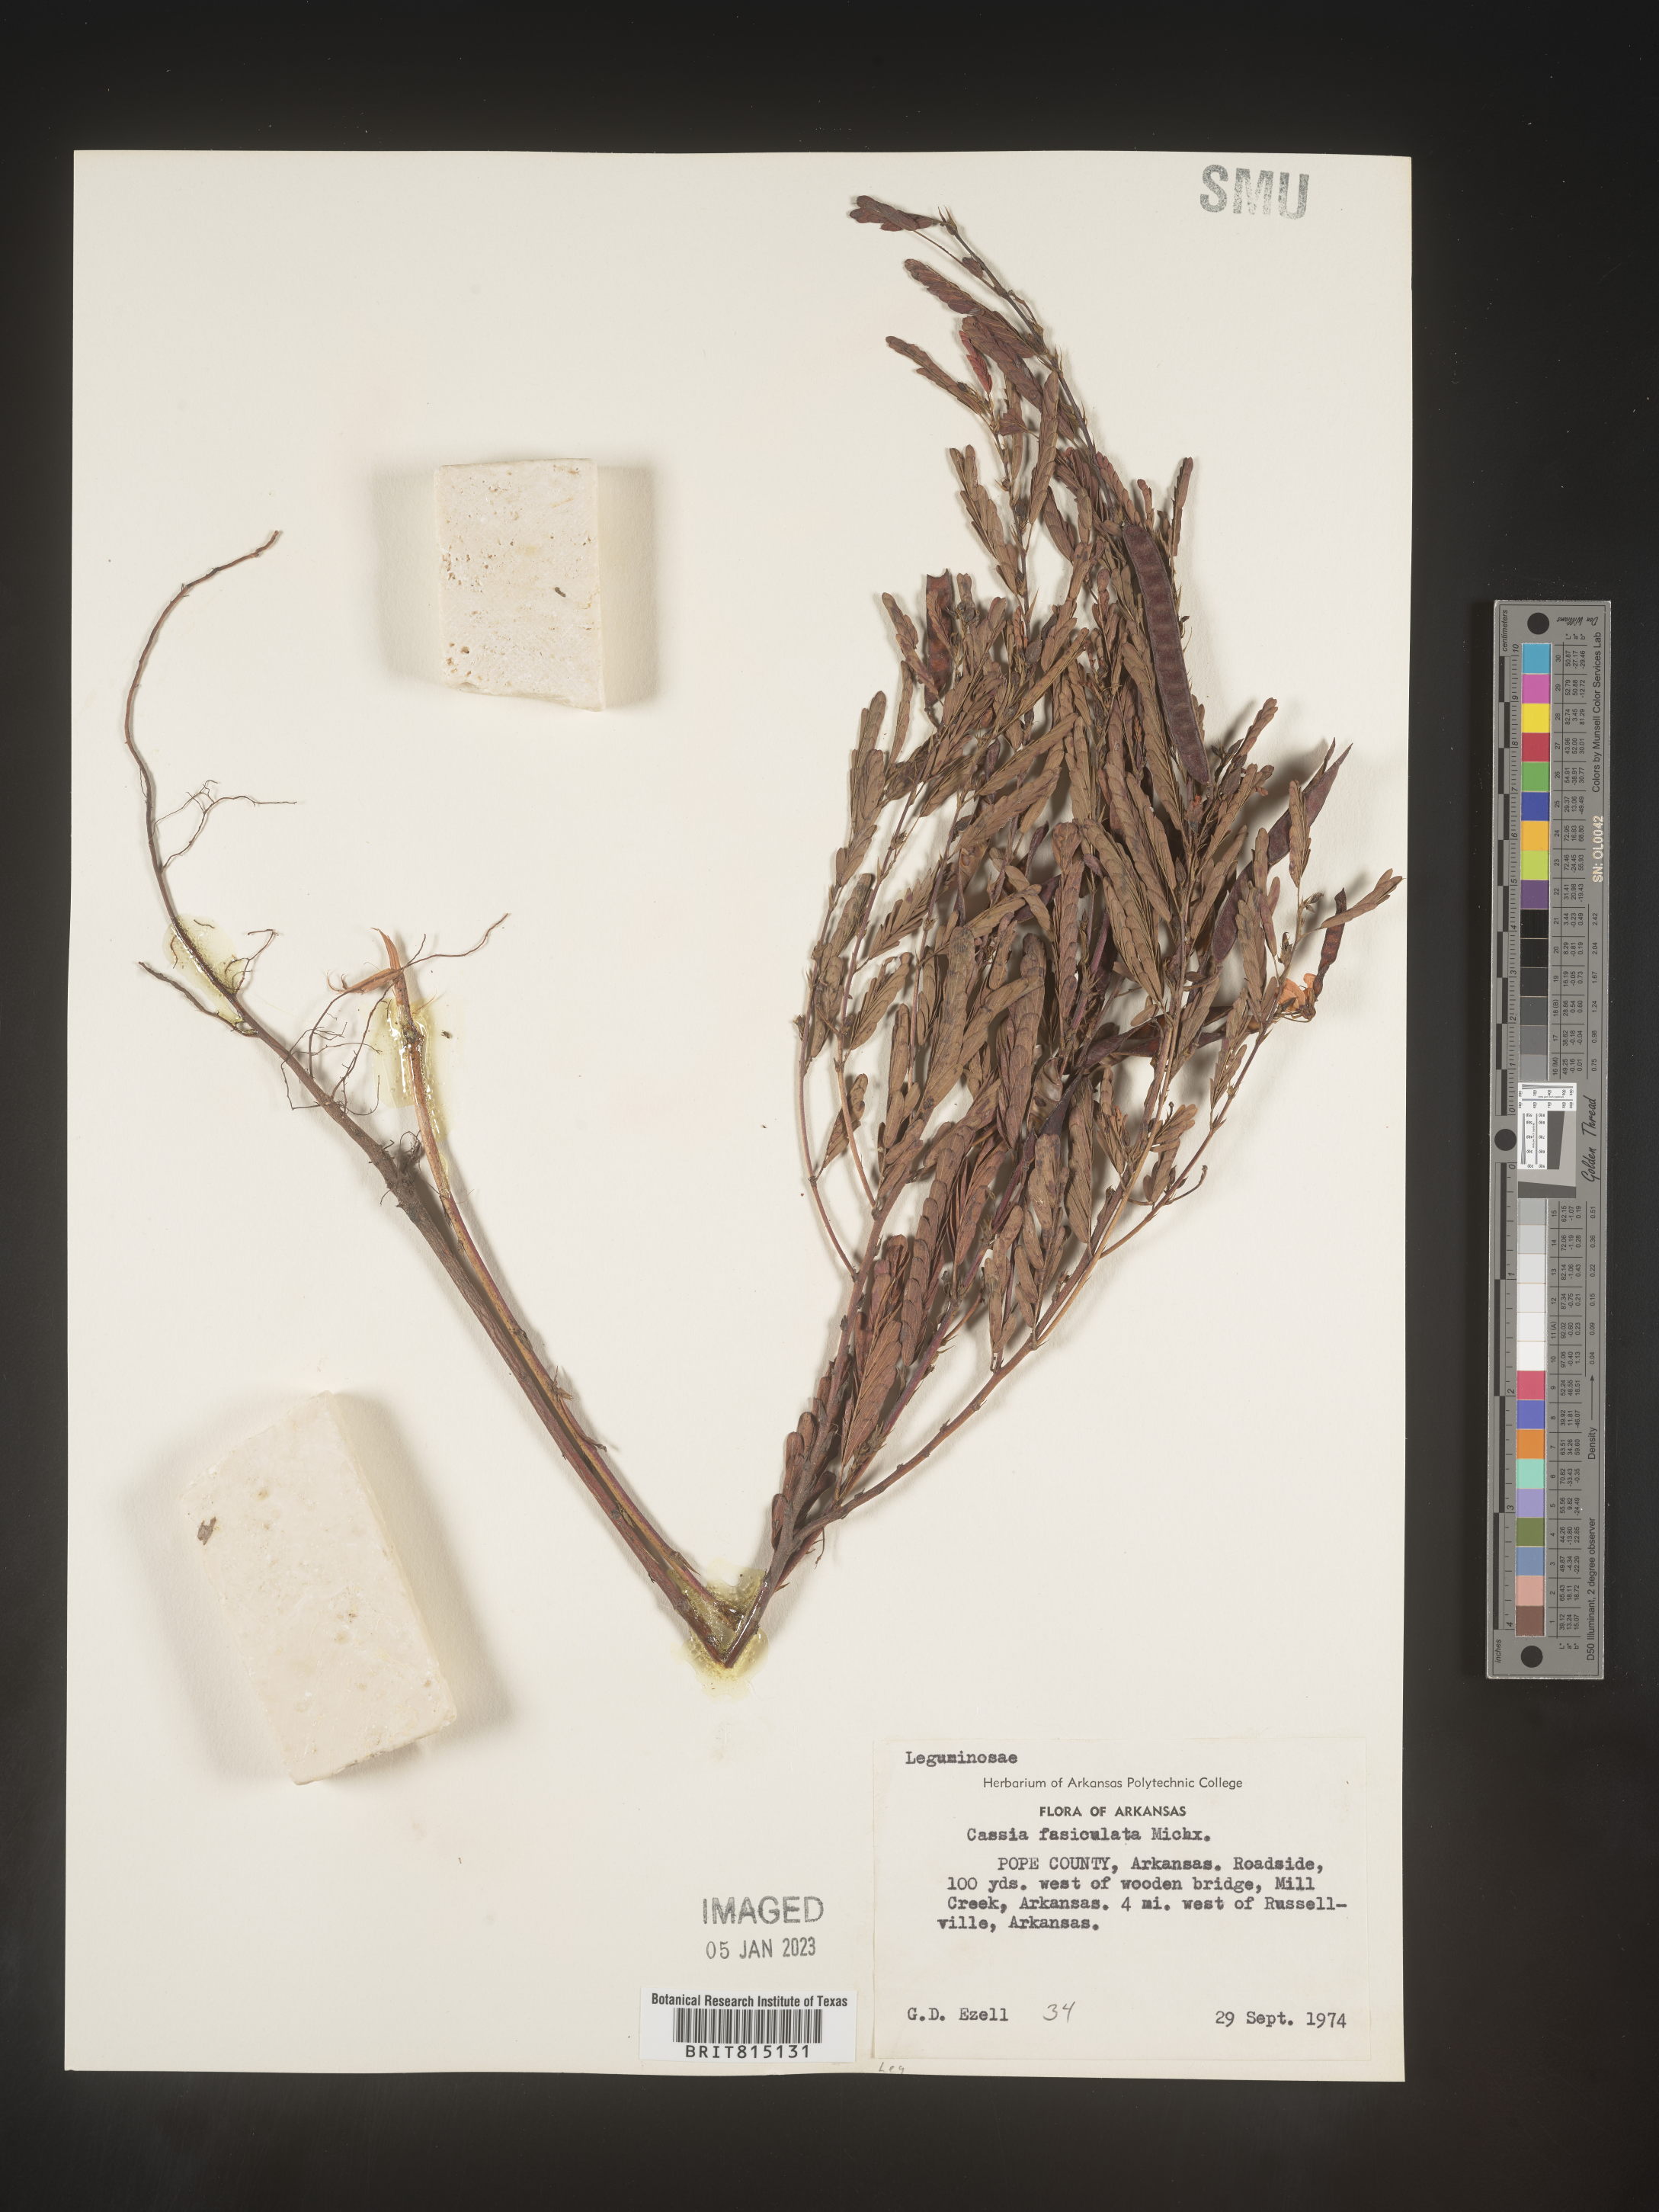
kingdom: Plantae
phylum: Tracheophyta
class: Magnoliopsida
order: Fabales
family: Fabaceae
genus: Chamaecrista
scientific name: Chamaecrista fasciculata
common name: Golden cassia
